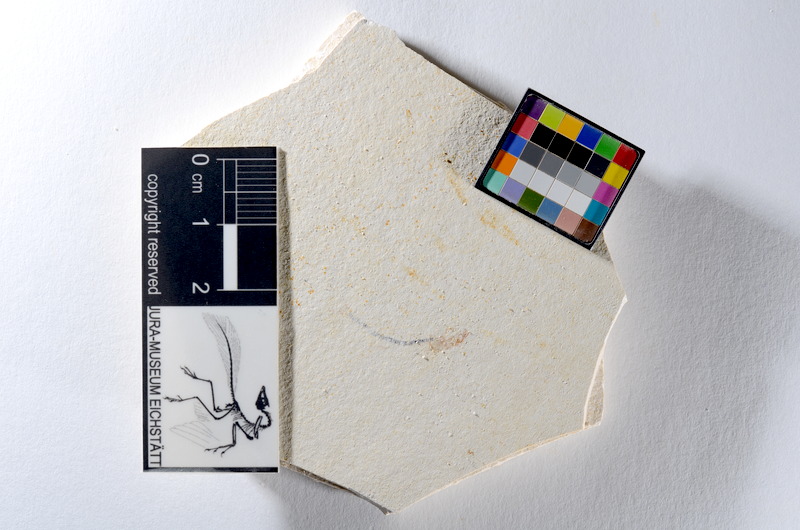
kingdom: Animalia
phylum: Chordata
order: Salmoniformes
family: Orthogonikleithridae
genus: Orthogonikleithrus
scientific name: Orthogonikleithrus hoelli
